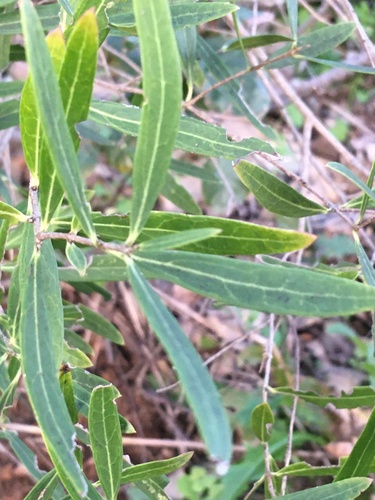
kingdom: Plantae
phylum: Tracheophyta
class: Magnoliopsida
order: Lamiales
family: Oleaceae
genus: Phillyrea
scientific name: Phillyrea angustifolia
